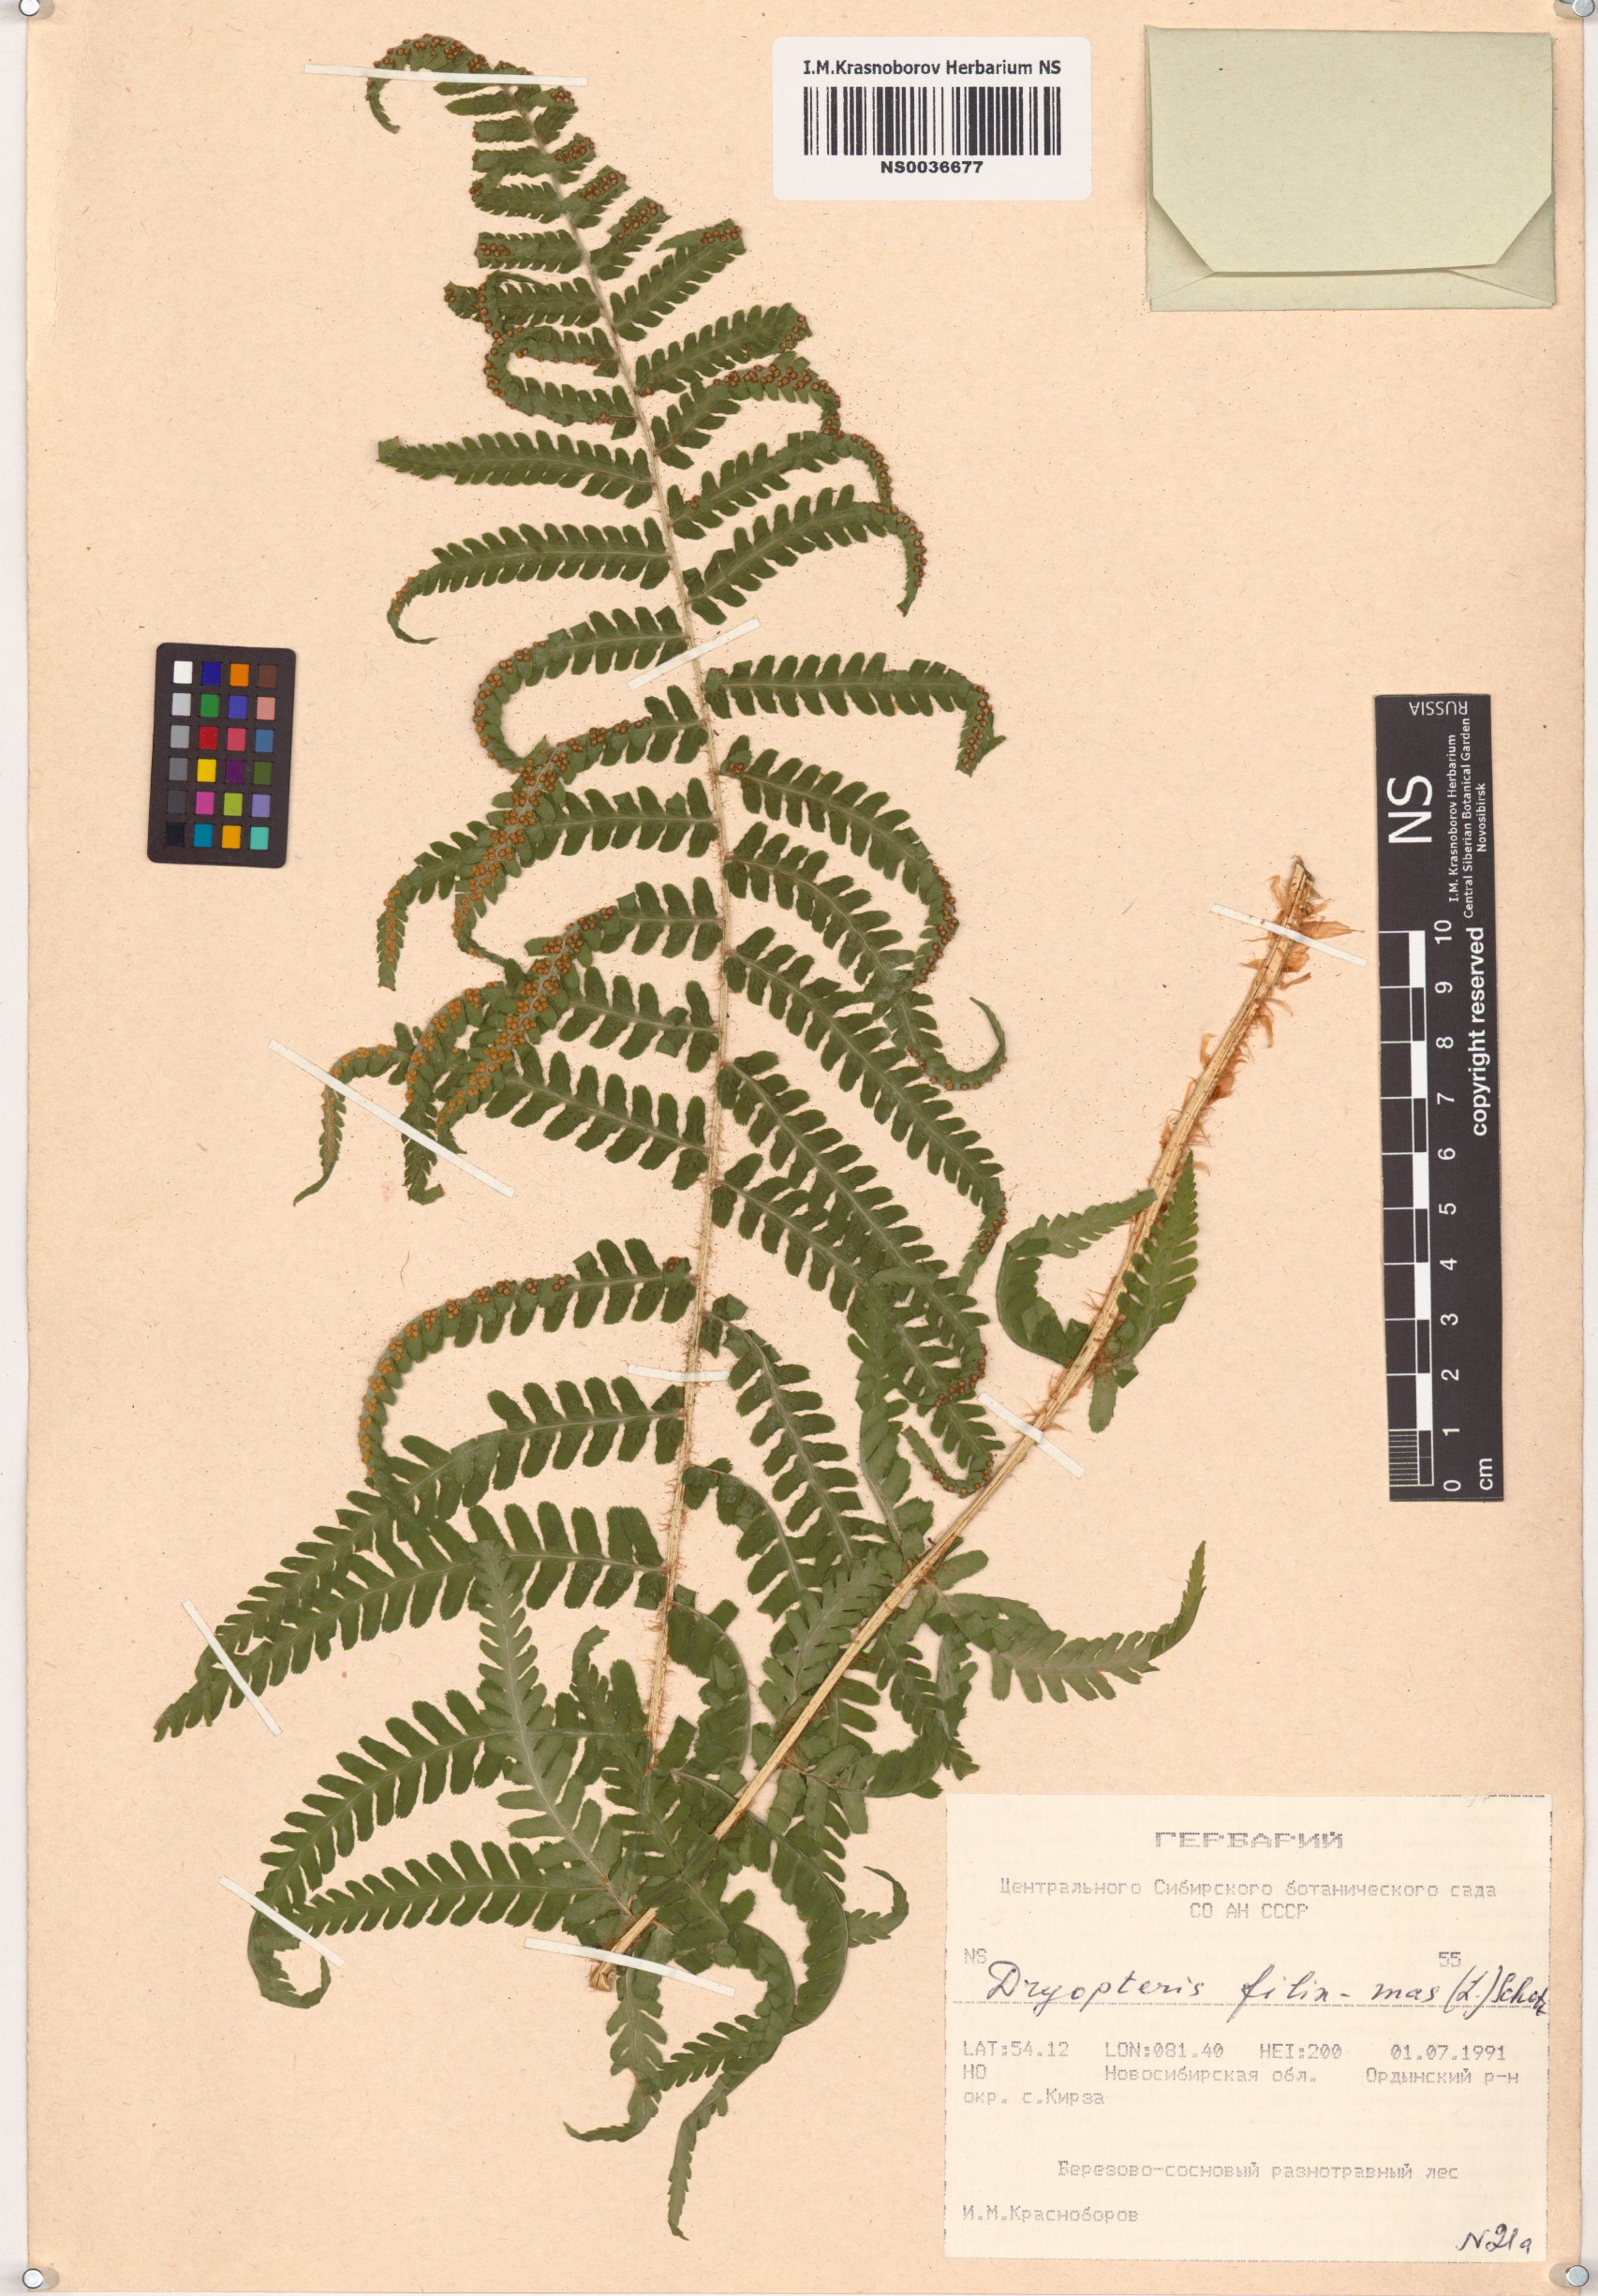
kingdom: Plantae
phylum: Tracheophyta
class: Polypodiopsida
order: Polypodiales
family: Dryopteridaceae
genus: Dryopteris
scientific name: Dryopteris filix-mas
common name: Male fern
